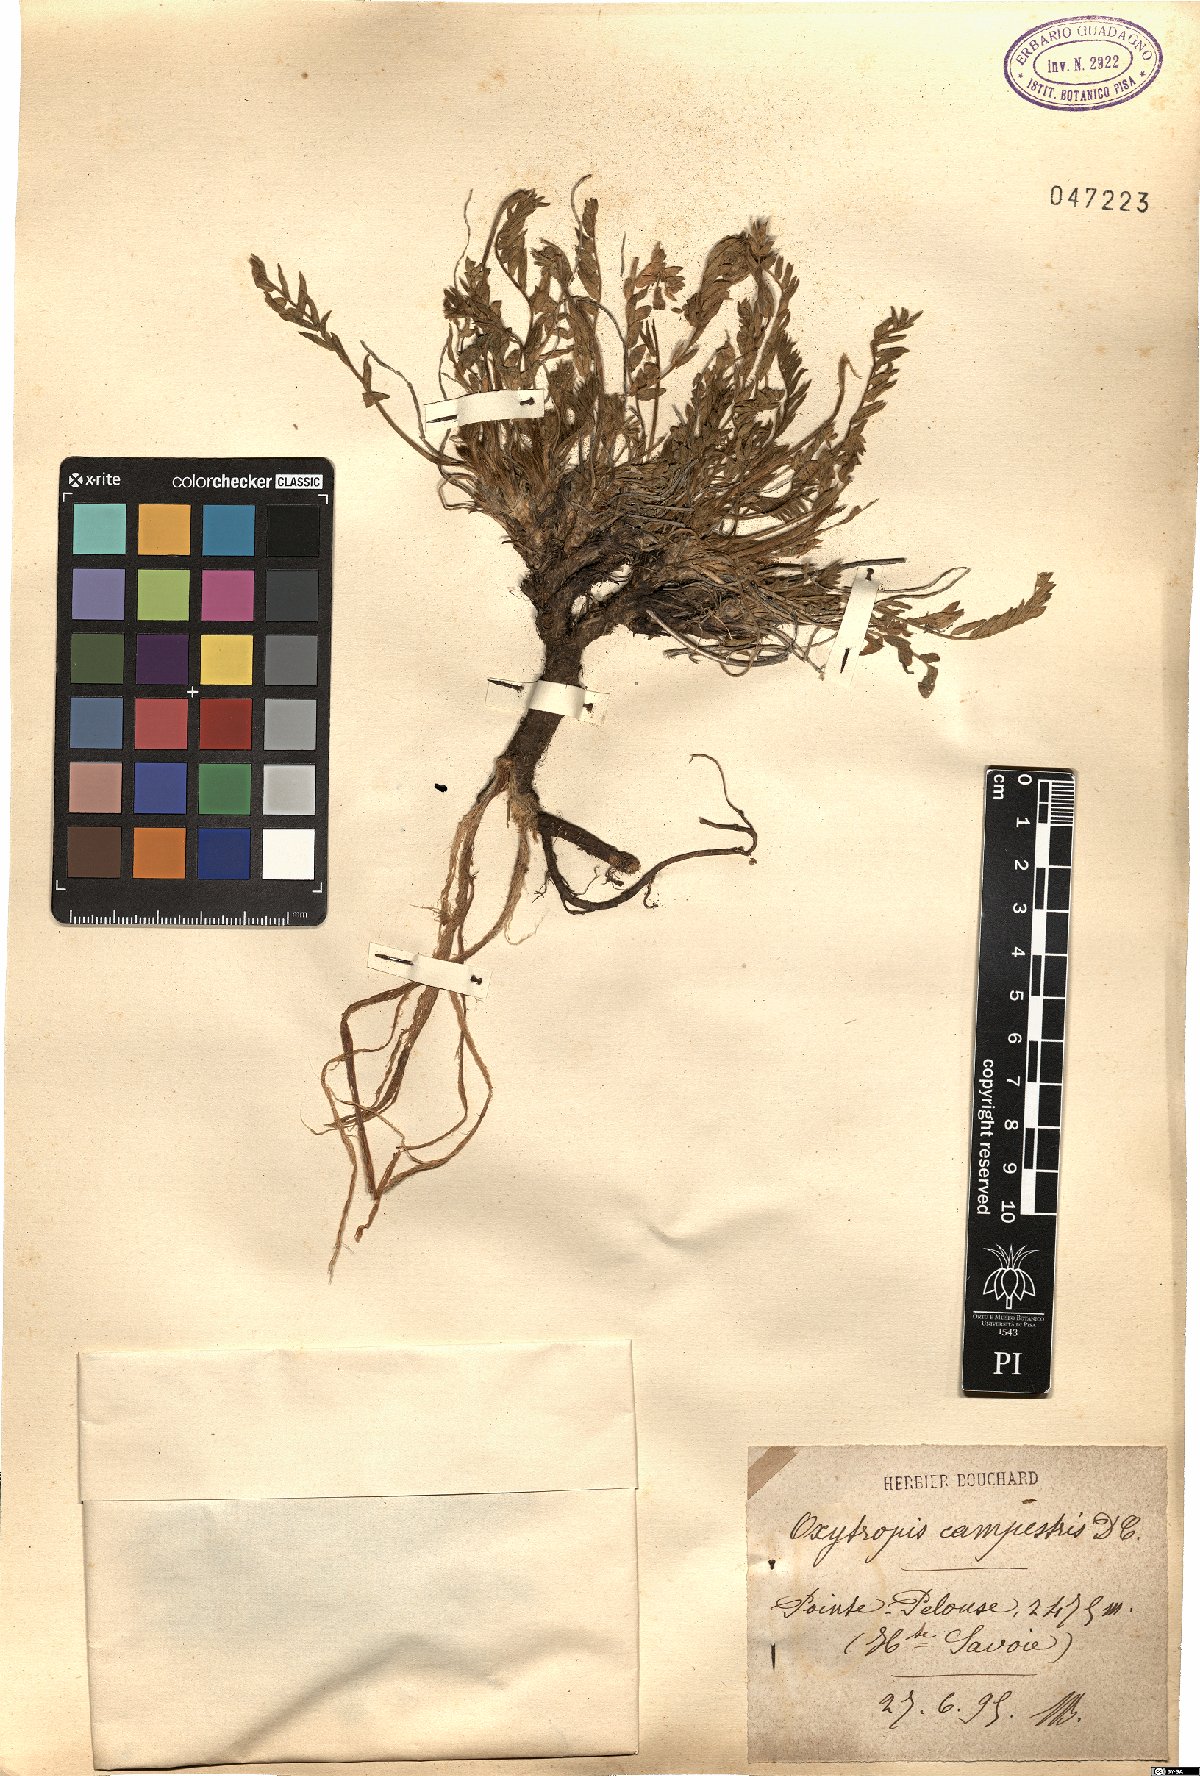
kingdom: Plantae
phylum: Tracheophyta
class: Magnoliopsida
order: Fabales
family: Fabaceae
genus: Oxytropis
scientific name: Oxytropis campestris
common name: Field locoweed
